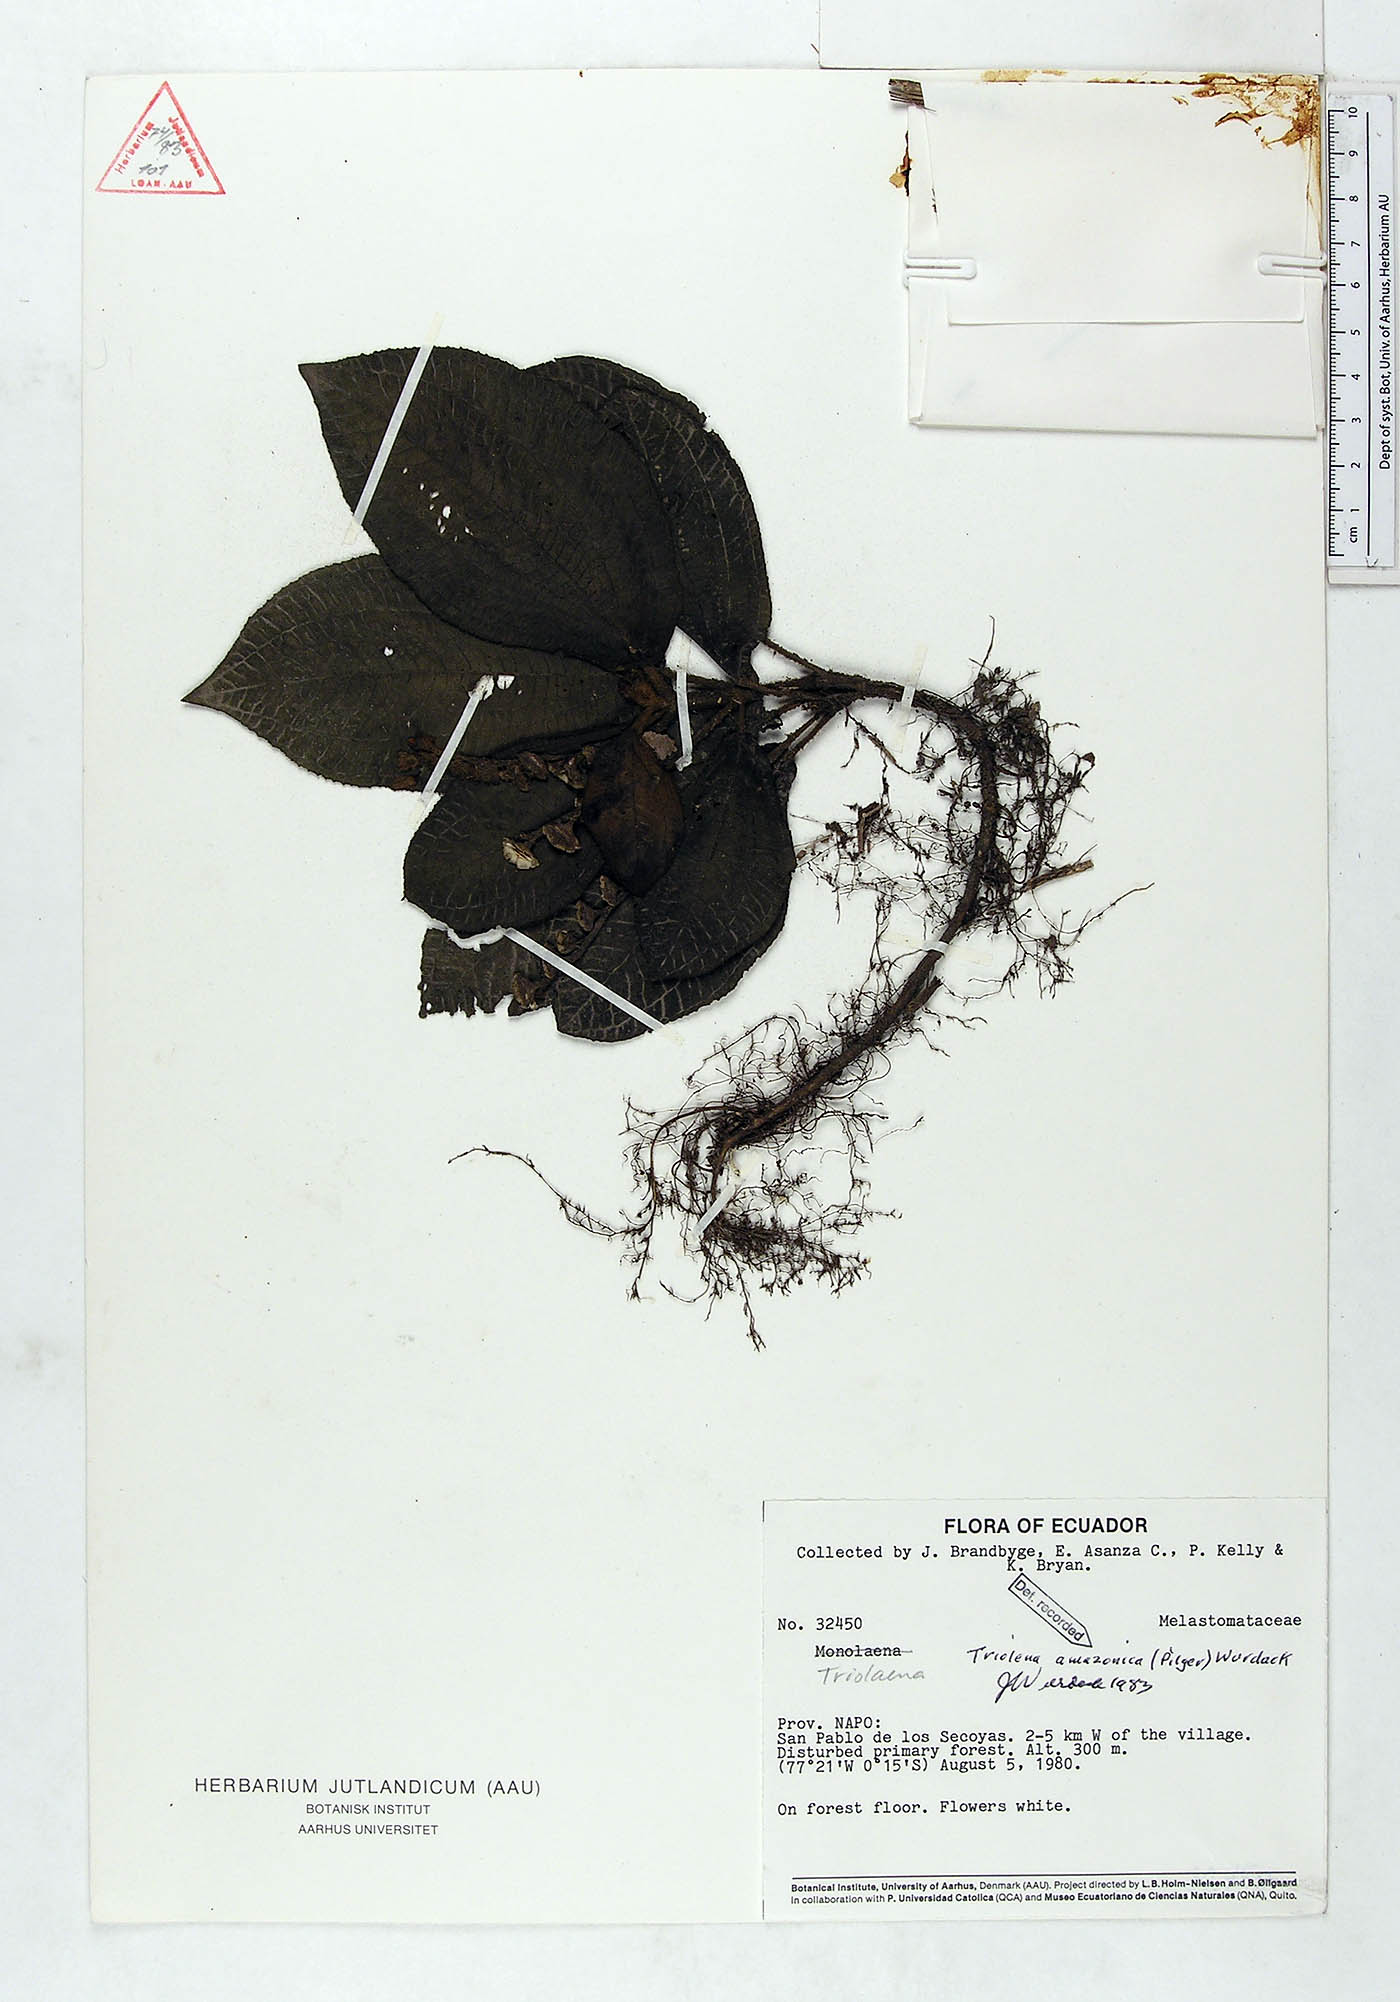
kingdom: Plantae
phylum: Tracheophyta
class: Magnoliopsida
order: Myrtales
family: Melastomataceae
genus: Triolena
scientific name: Triolena amazonica
